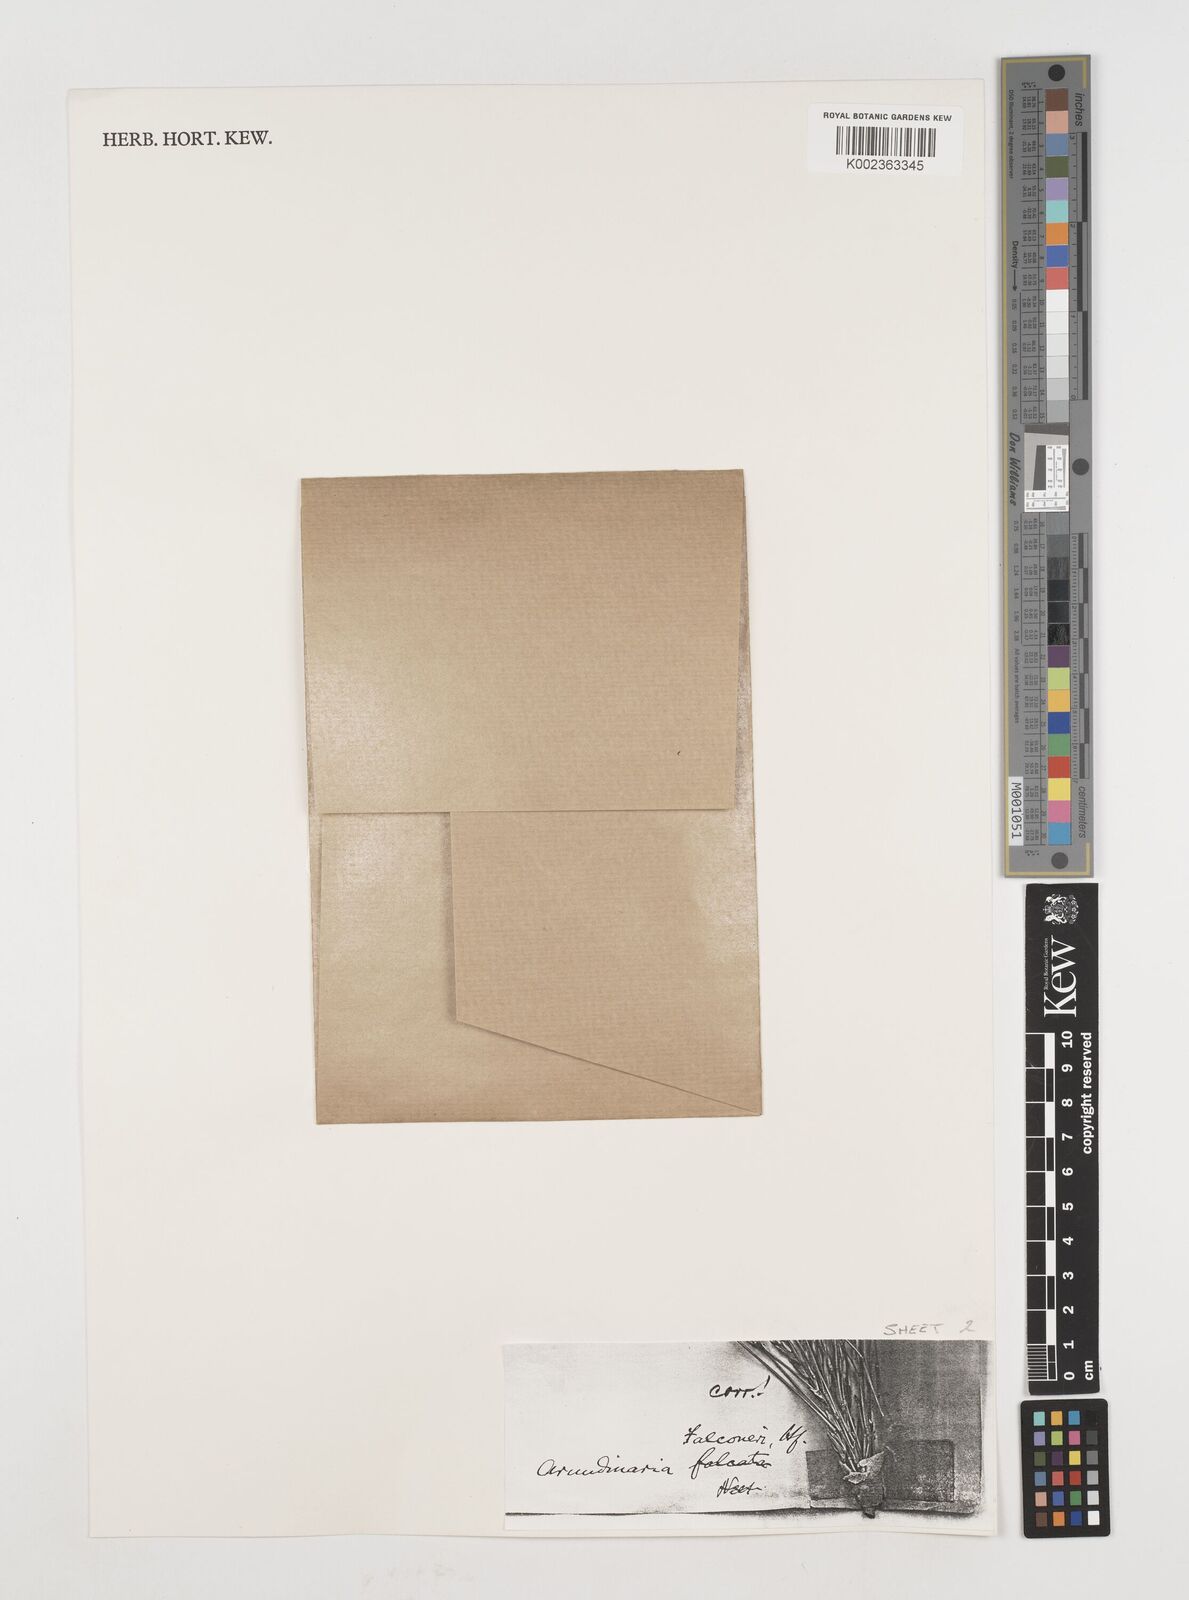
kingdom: Plantae
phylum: Tracheophyta
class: Liliopsida
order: Poales
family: Poaceae
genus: Himalayacalamus
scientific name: Himalayacalamus falconeri
